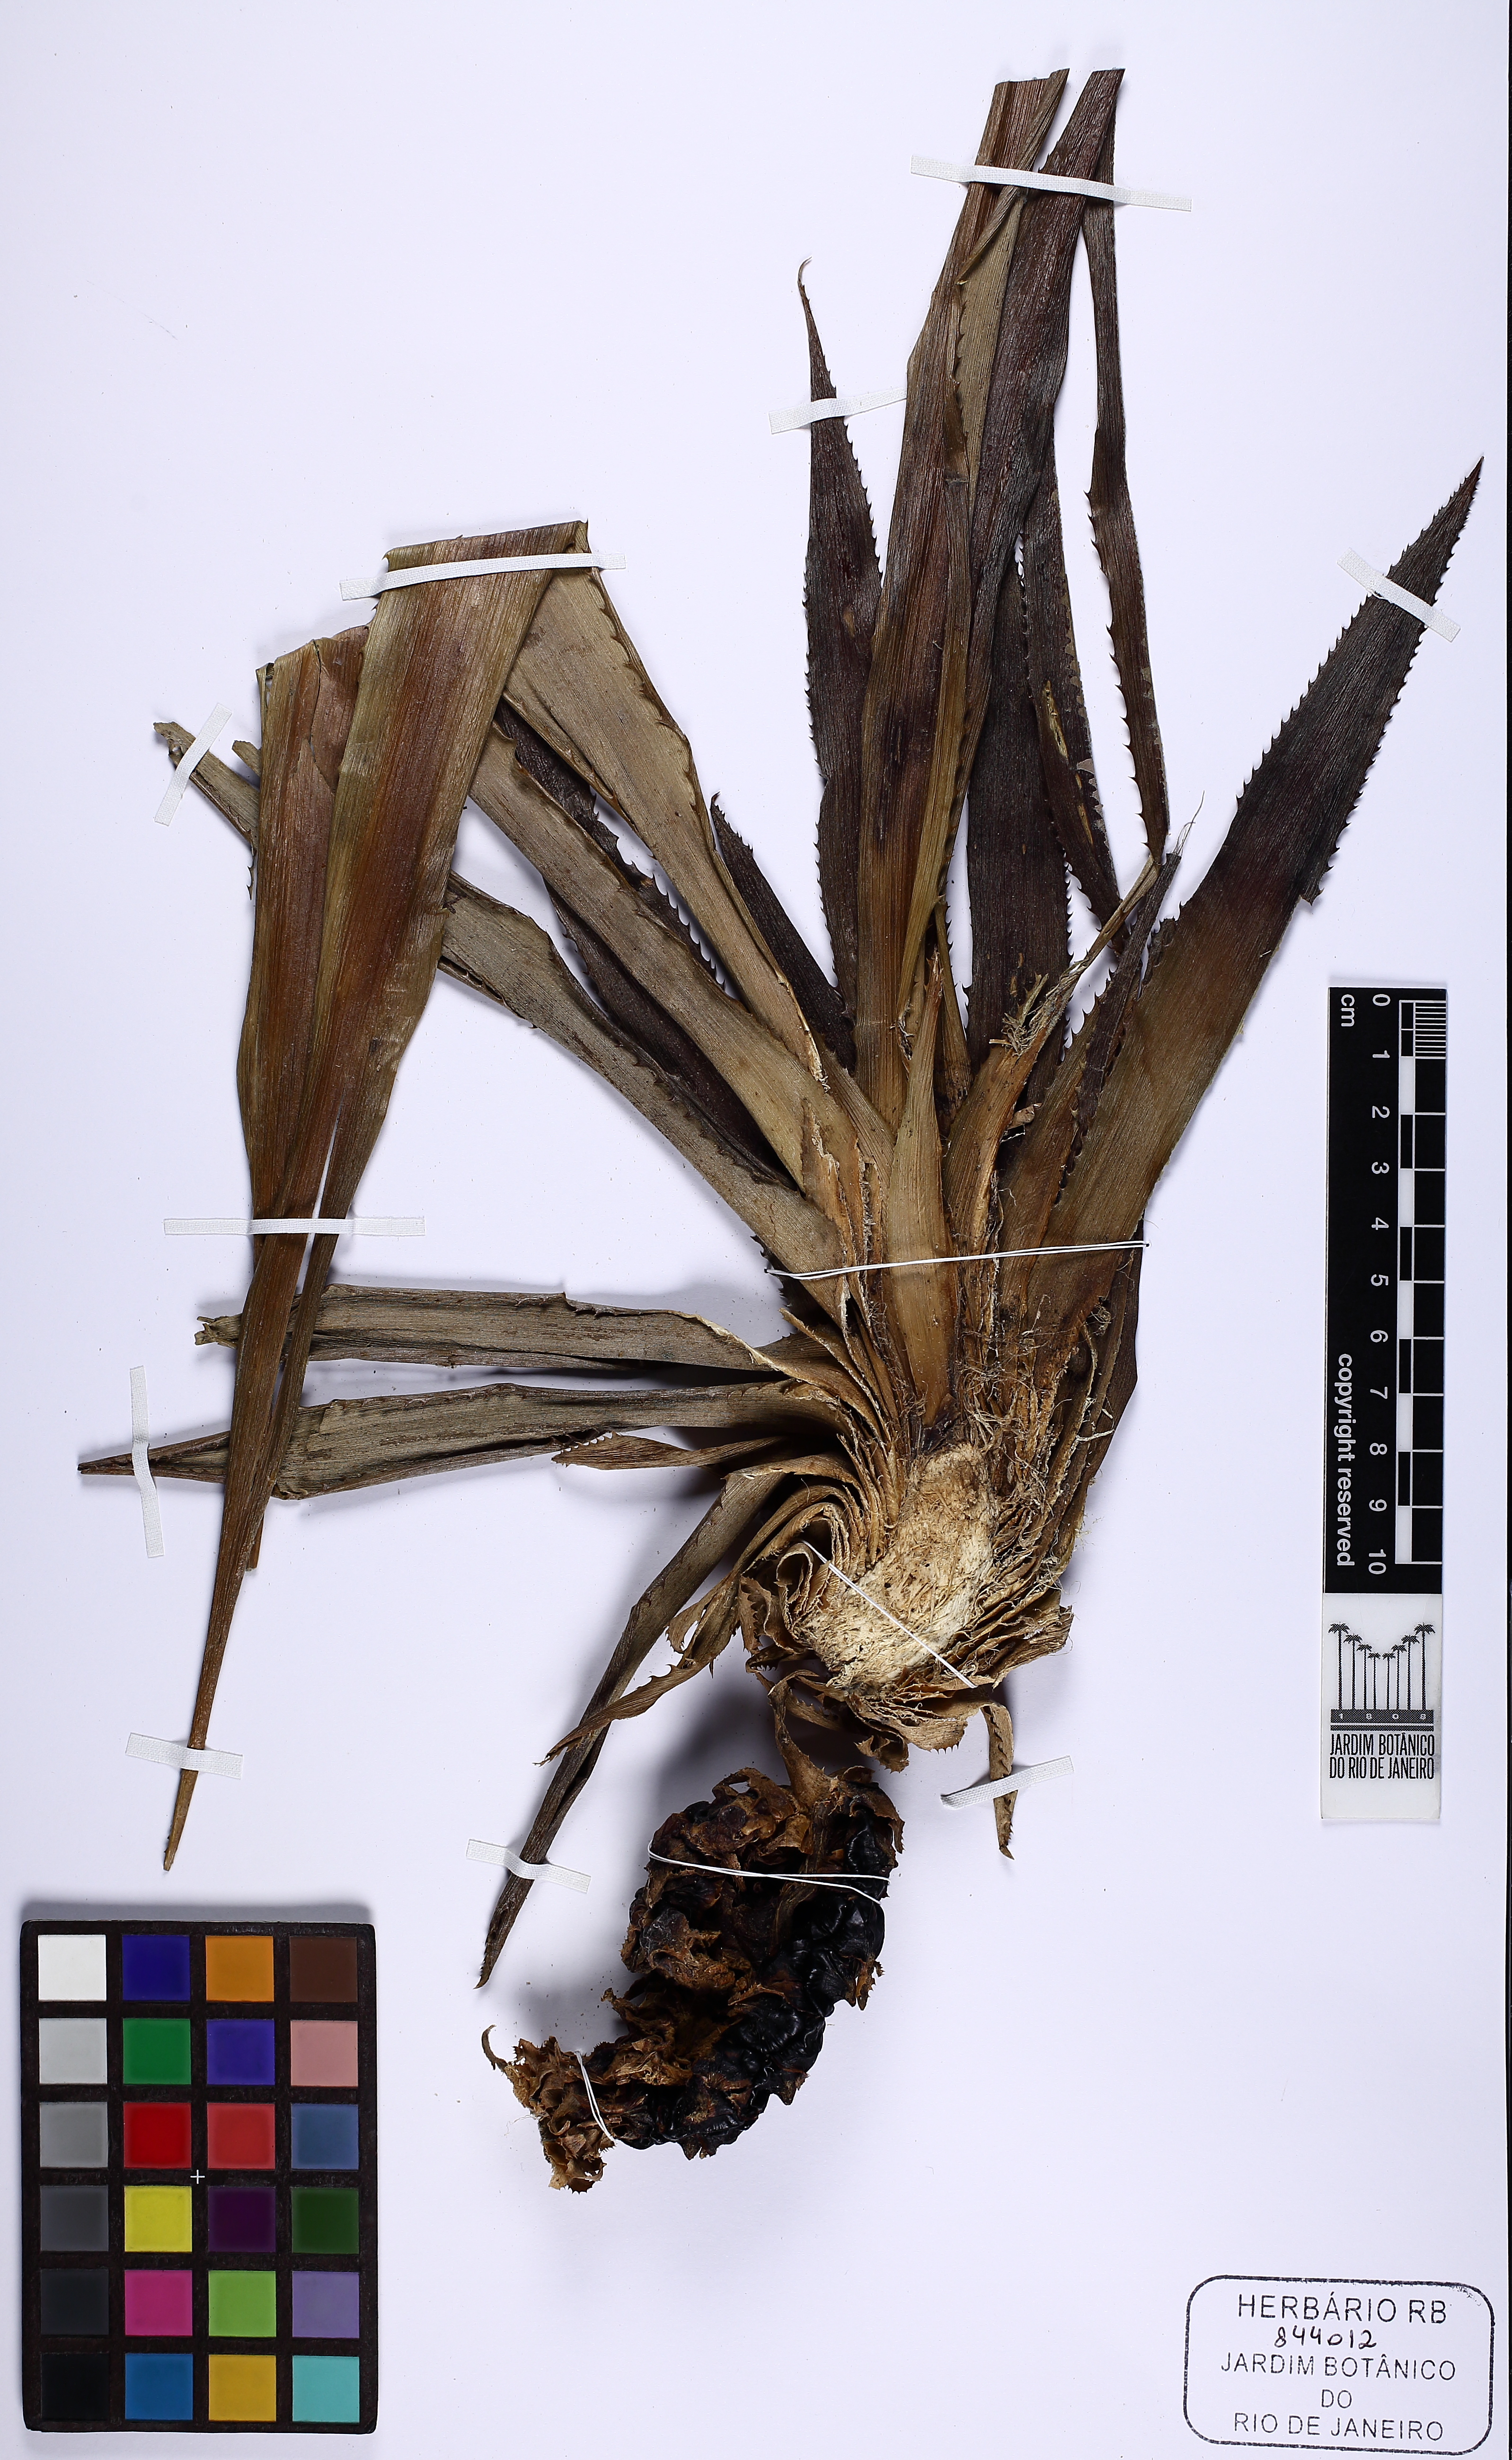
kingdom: Plantae
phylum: Tracheophyta
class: Liliopsida
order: Poales
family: Bromeliaceae
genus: Ananas
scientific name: Ananas comosus
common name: Pineapple
